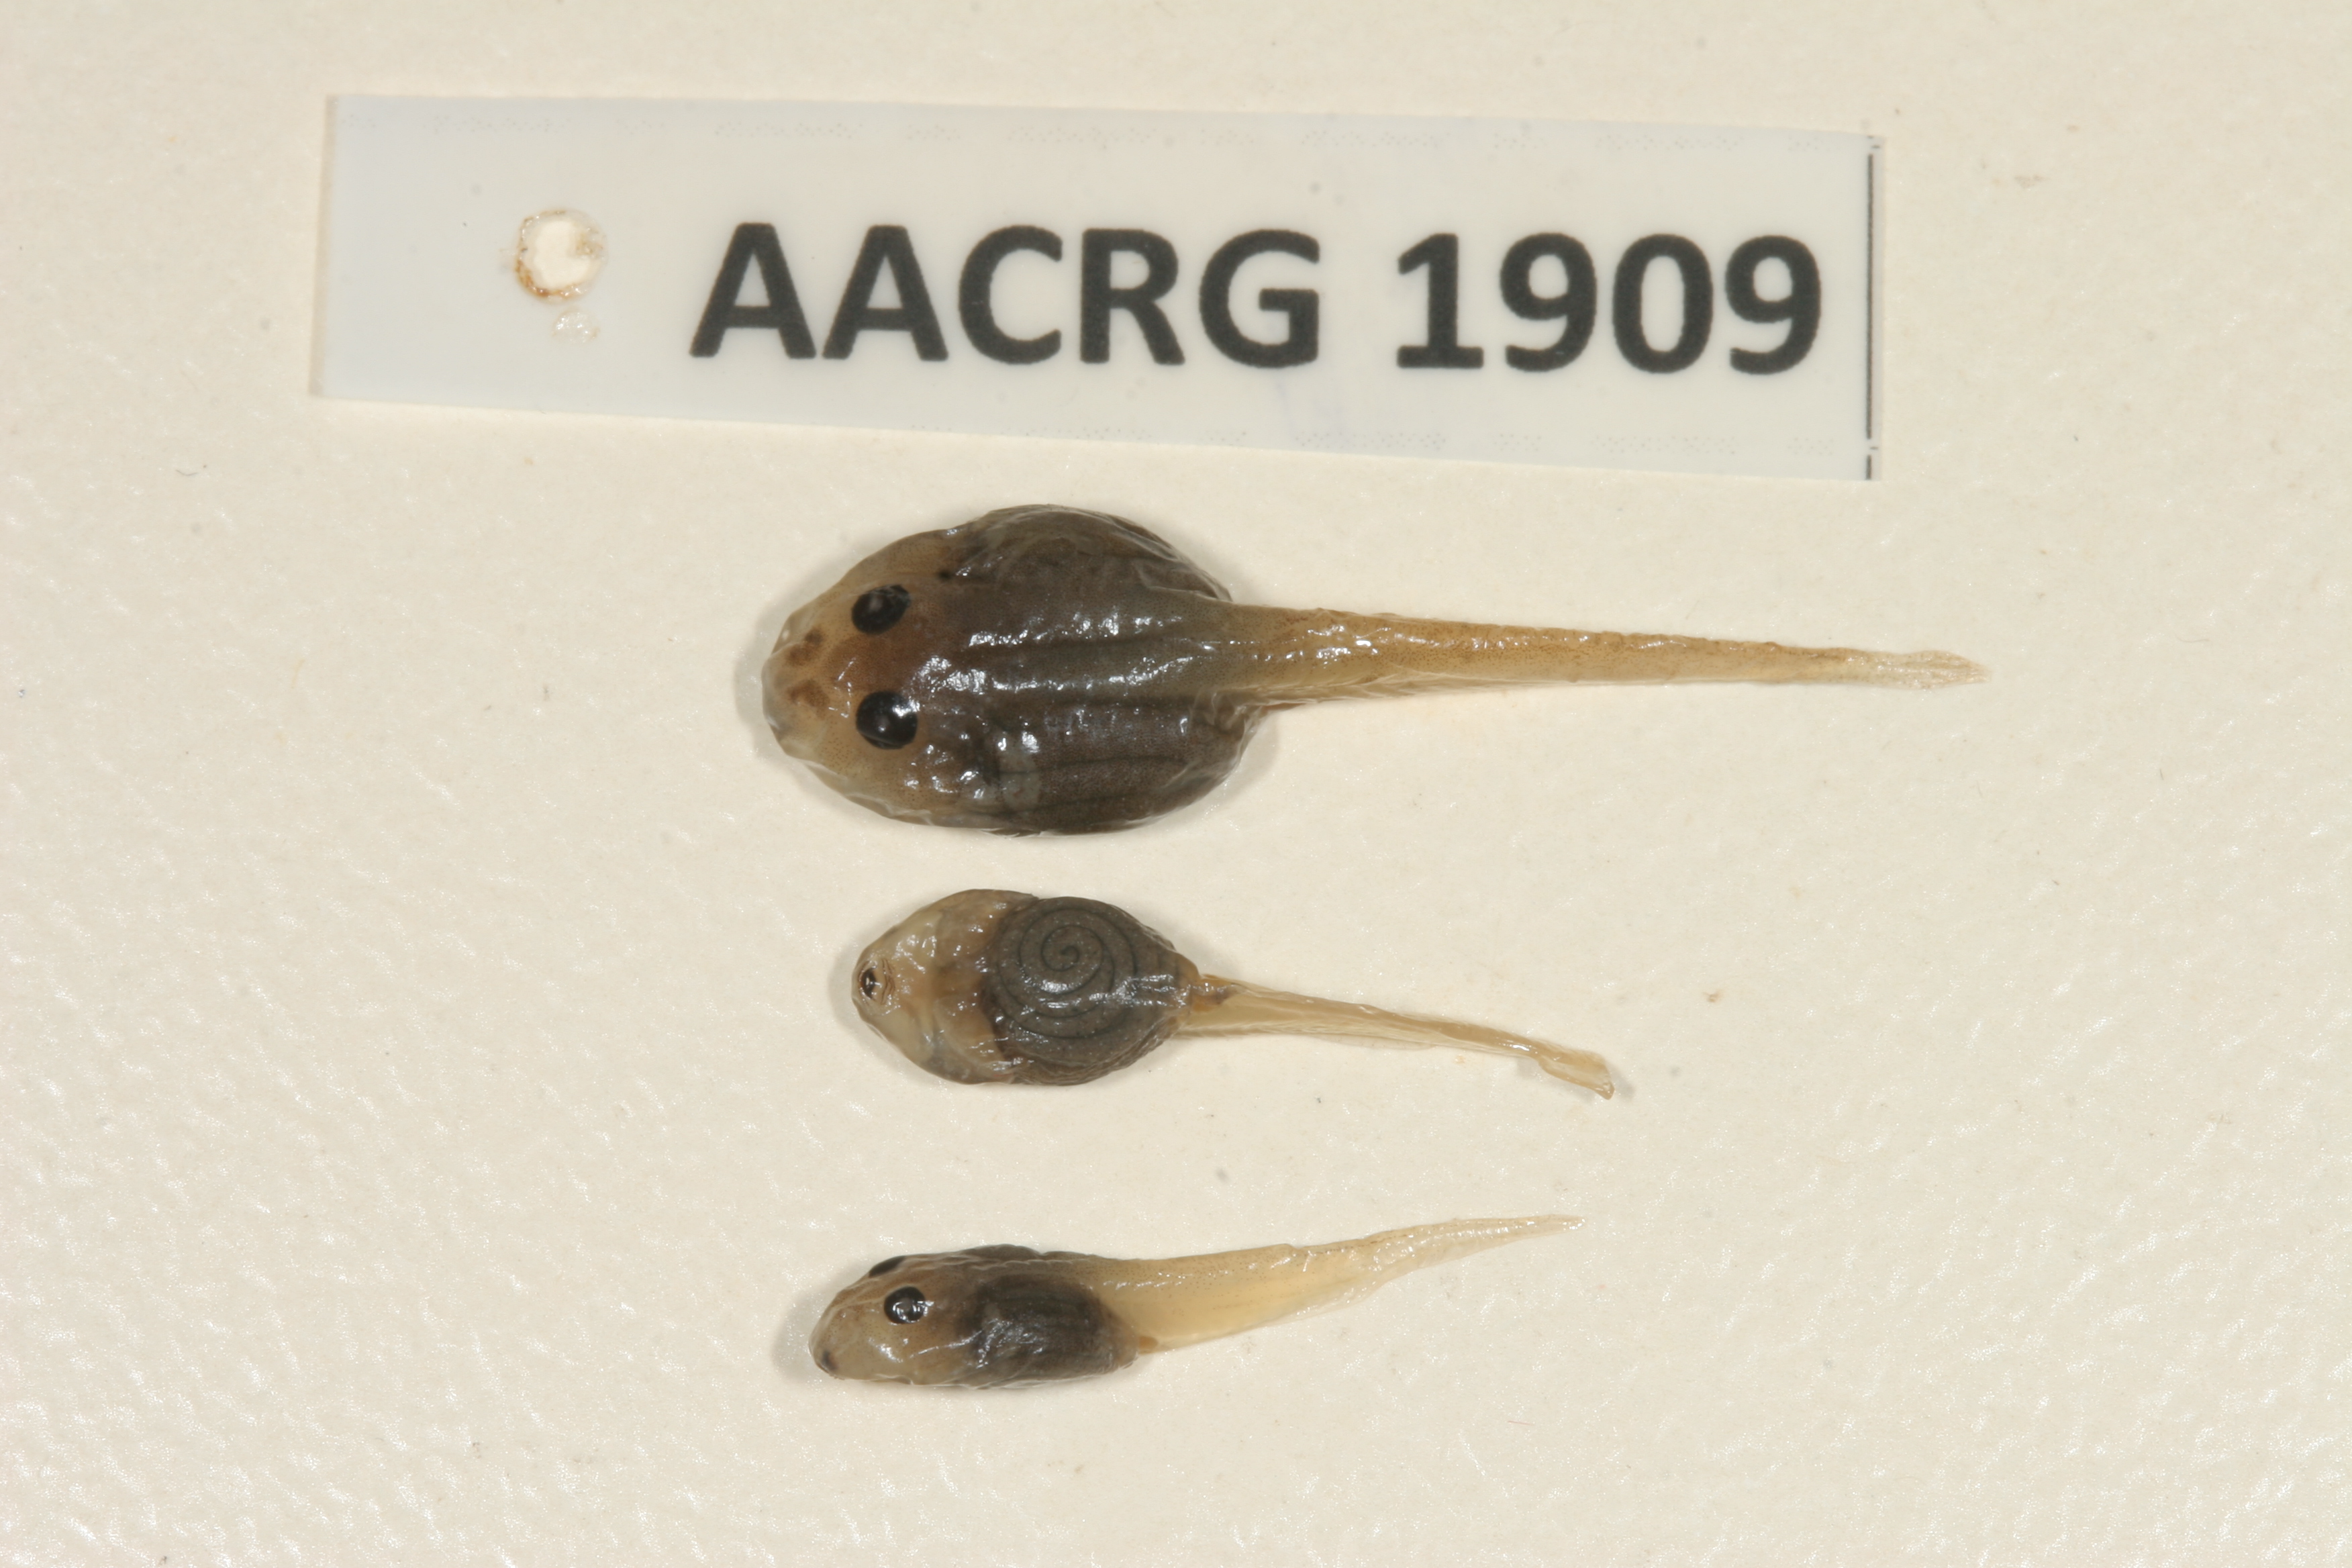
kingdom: Animalia
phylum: Chordata
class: Amphibia
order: Anura
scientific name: Anura
